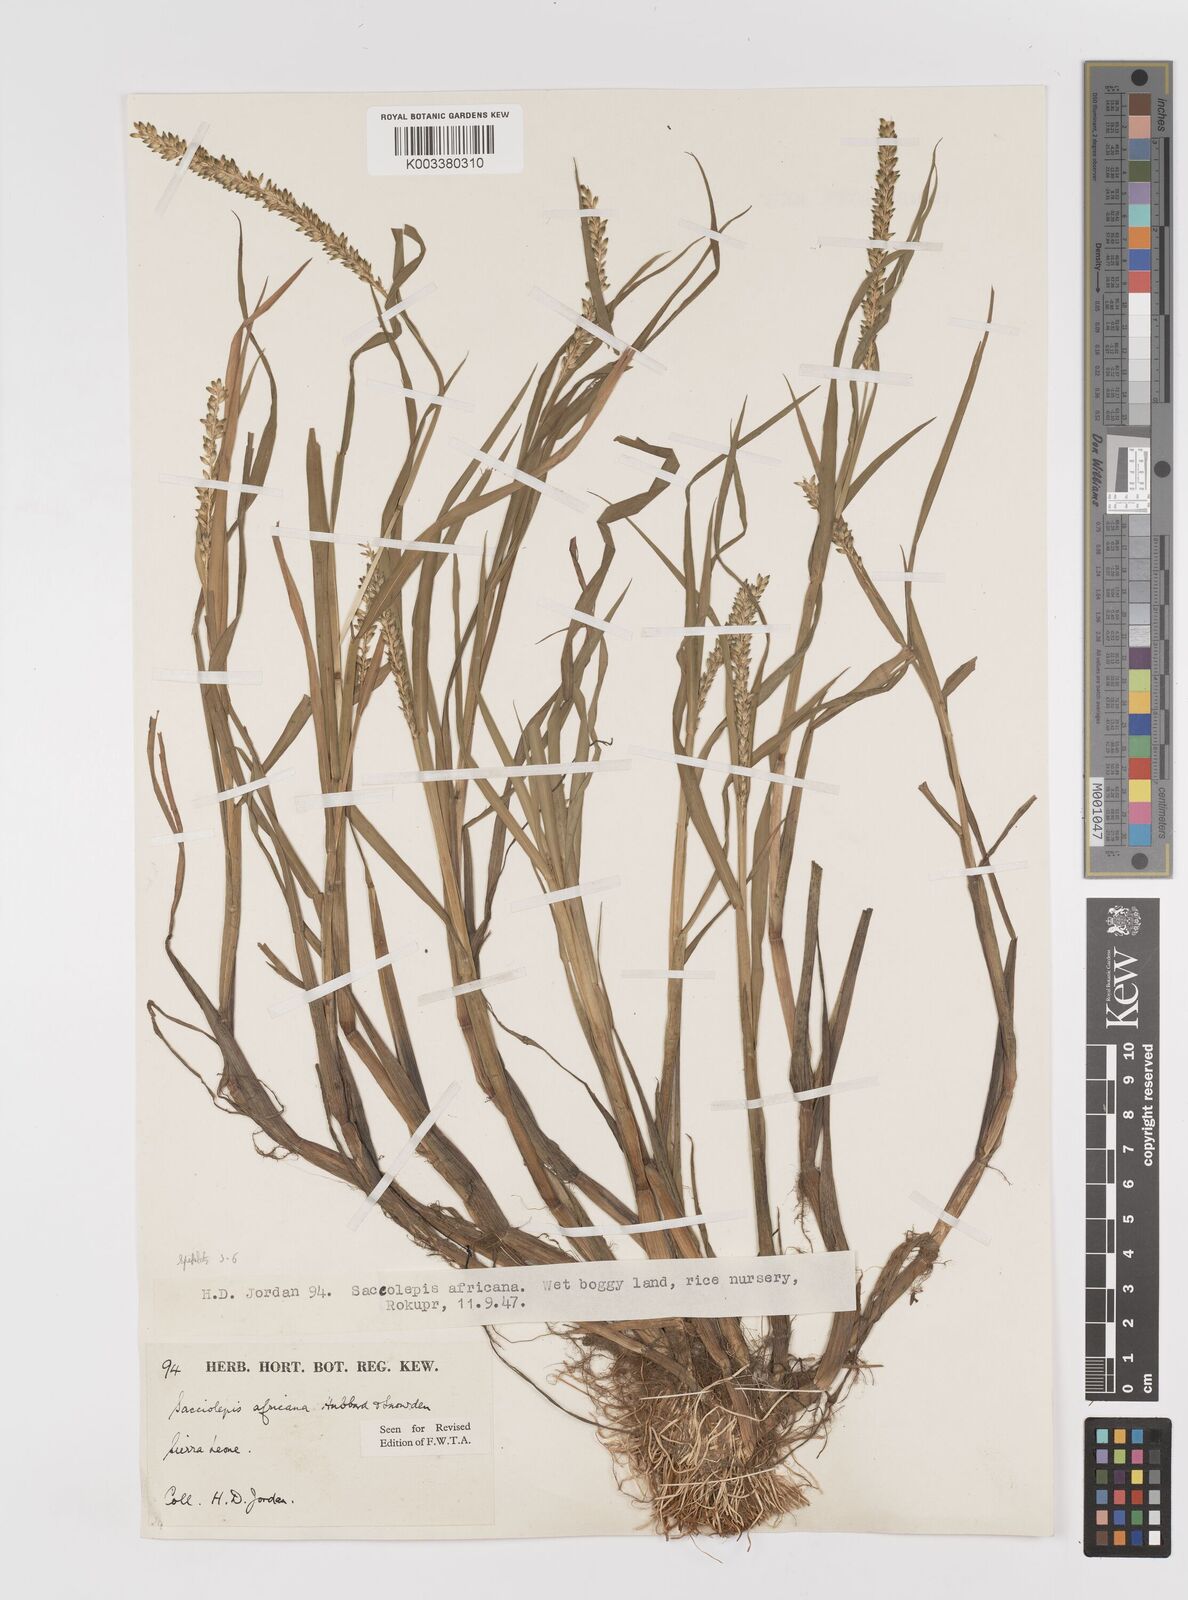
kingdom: Plantae
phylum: Tracheophyta
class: Liliopsida
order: Poales
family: Poaceae
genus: Sacciolepis
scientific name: Sacciolepis africana
